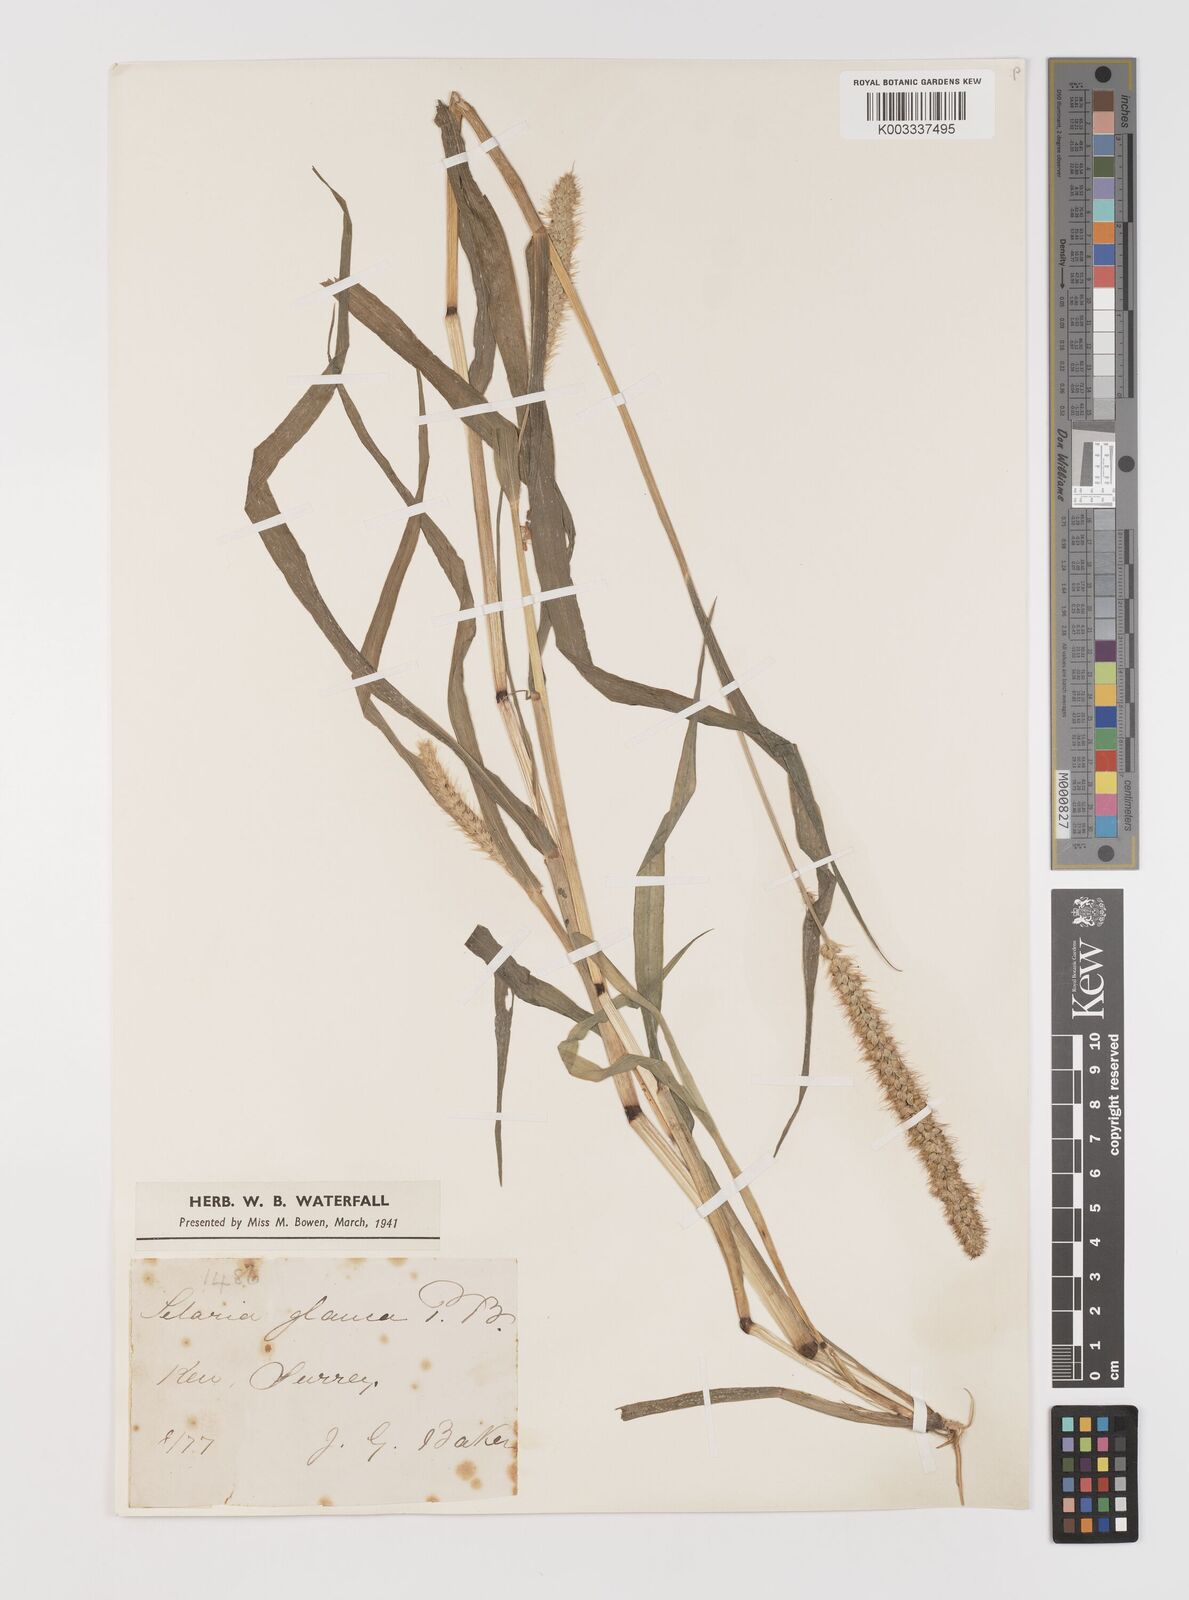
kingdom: Plantae
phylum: Tracheophyta
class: Liliopsida
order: Poales
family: Poaceae
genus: Setaria
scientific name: Setaria pumila
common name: Yellow bristle-grass
